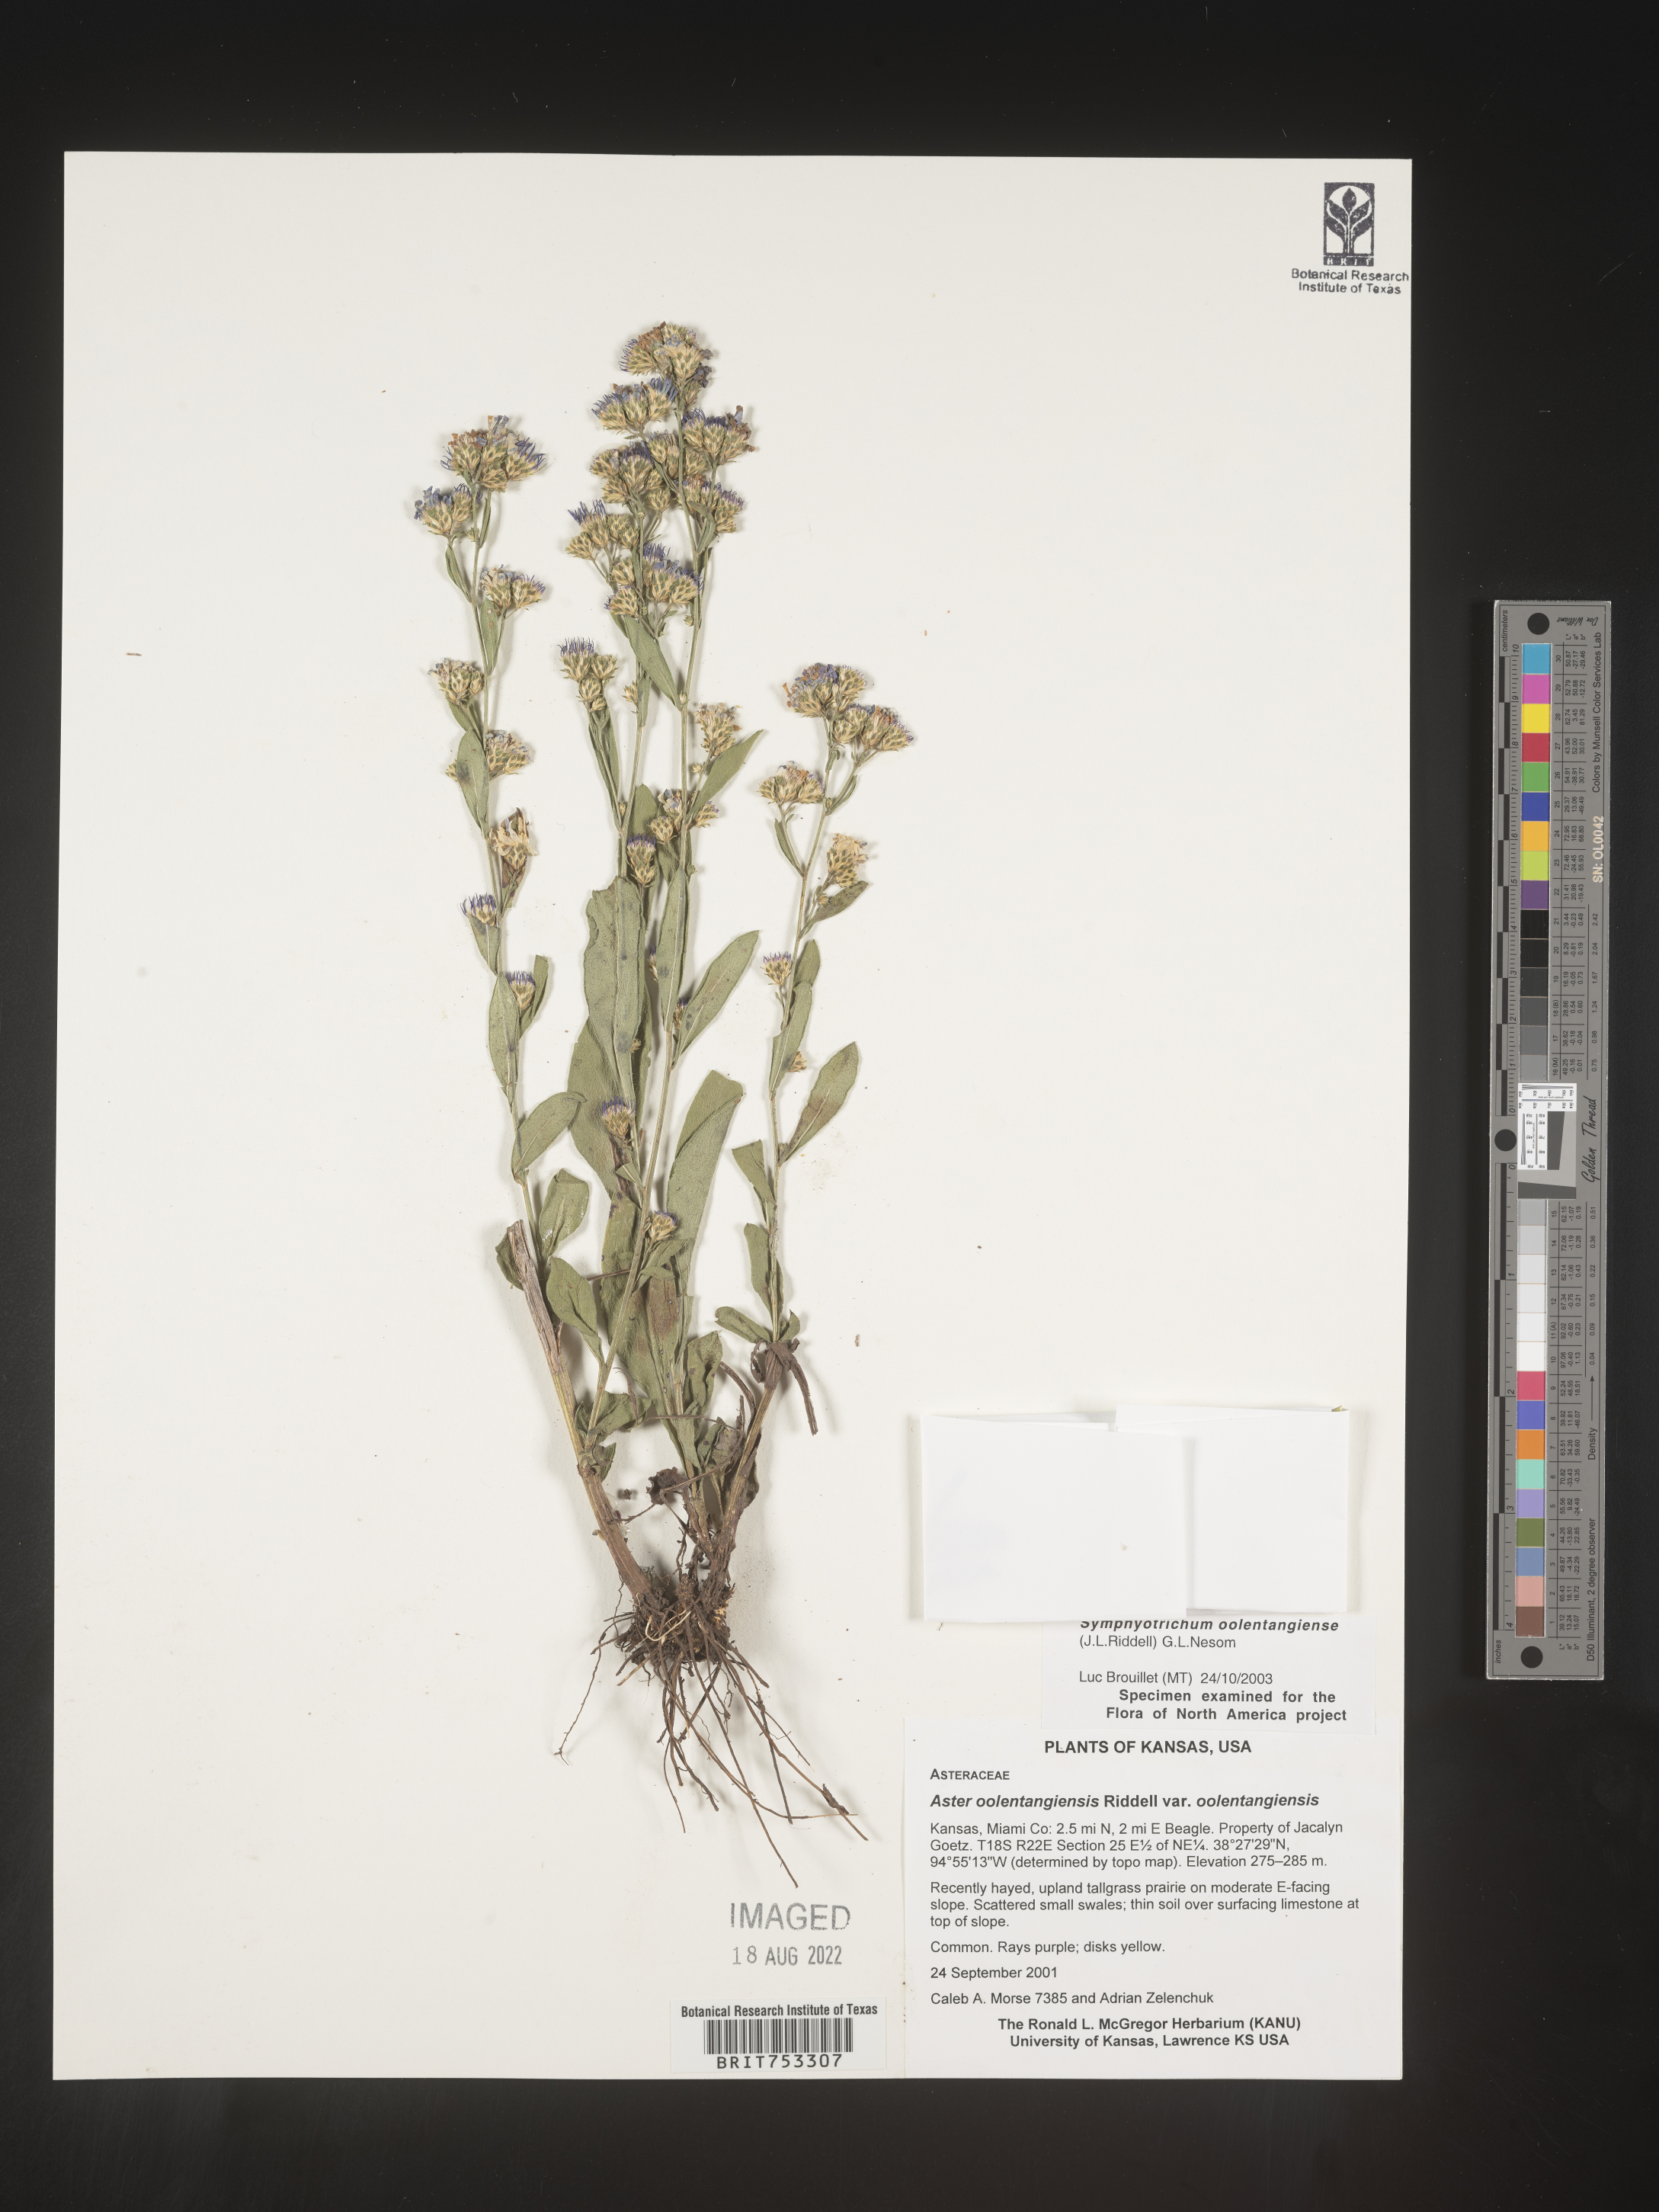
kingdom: Plantae
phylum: Tracheophyta
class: Magnoliopsida
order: Asterales
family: Asteraceae
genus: Symphyotrichum
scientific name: Symphyotrichum oolentangiense
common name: Azure aster
